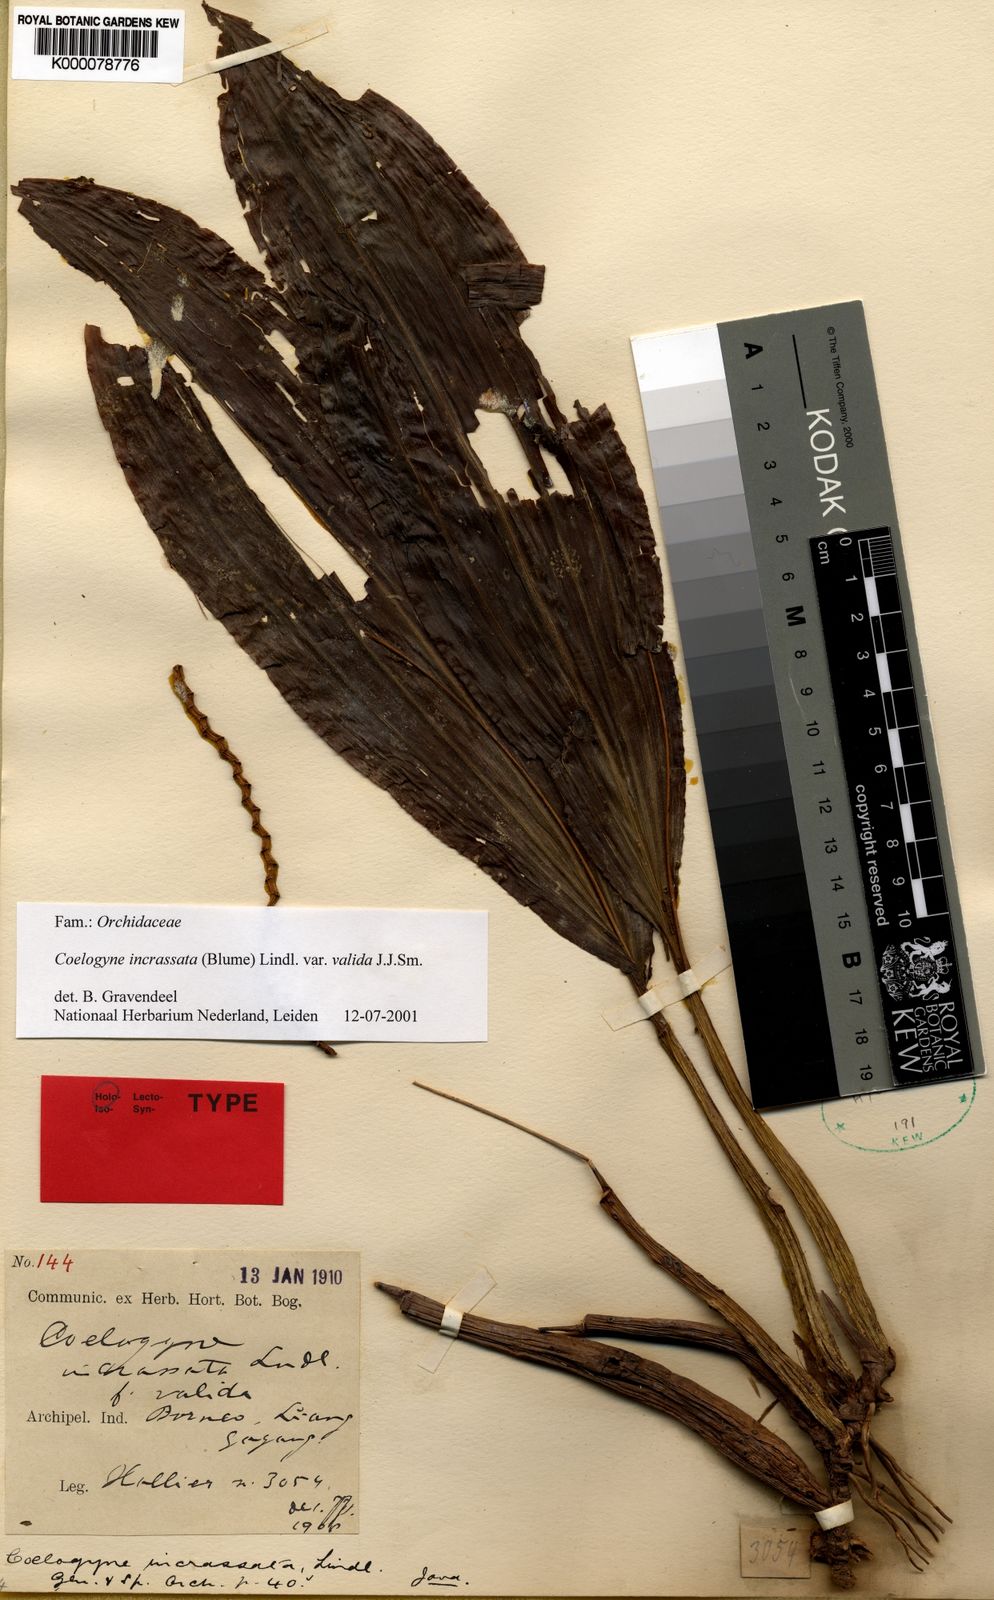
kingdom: Plantae
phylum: Tracheophyta
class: Liliopsida
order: Asparagales
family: Orchidaceae
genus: Coelogyne
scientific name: Coelogyne incrassata
